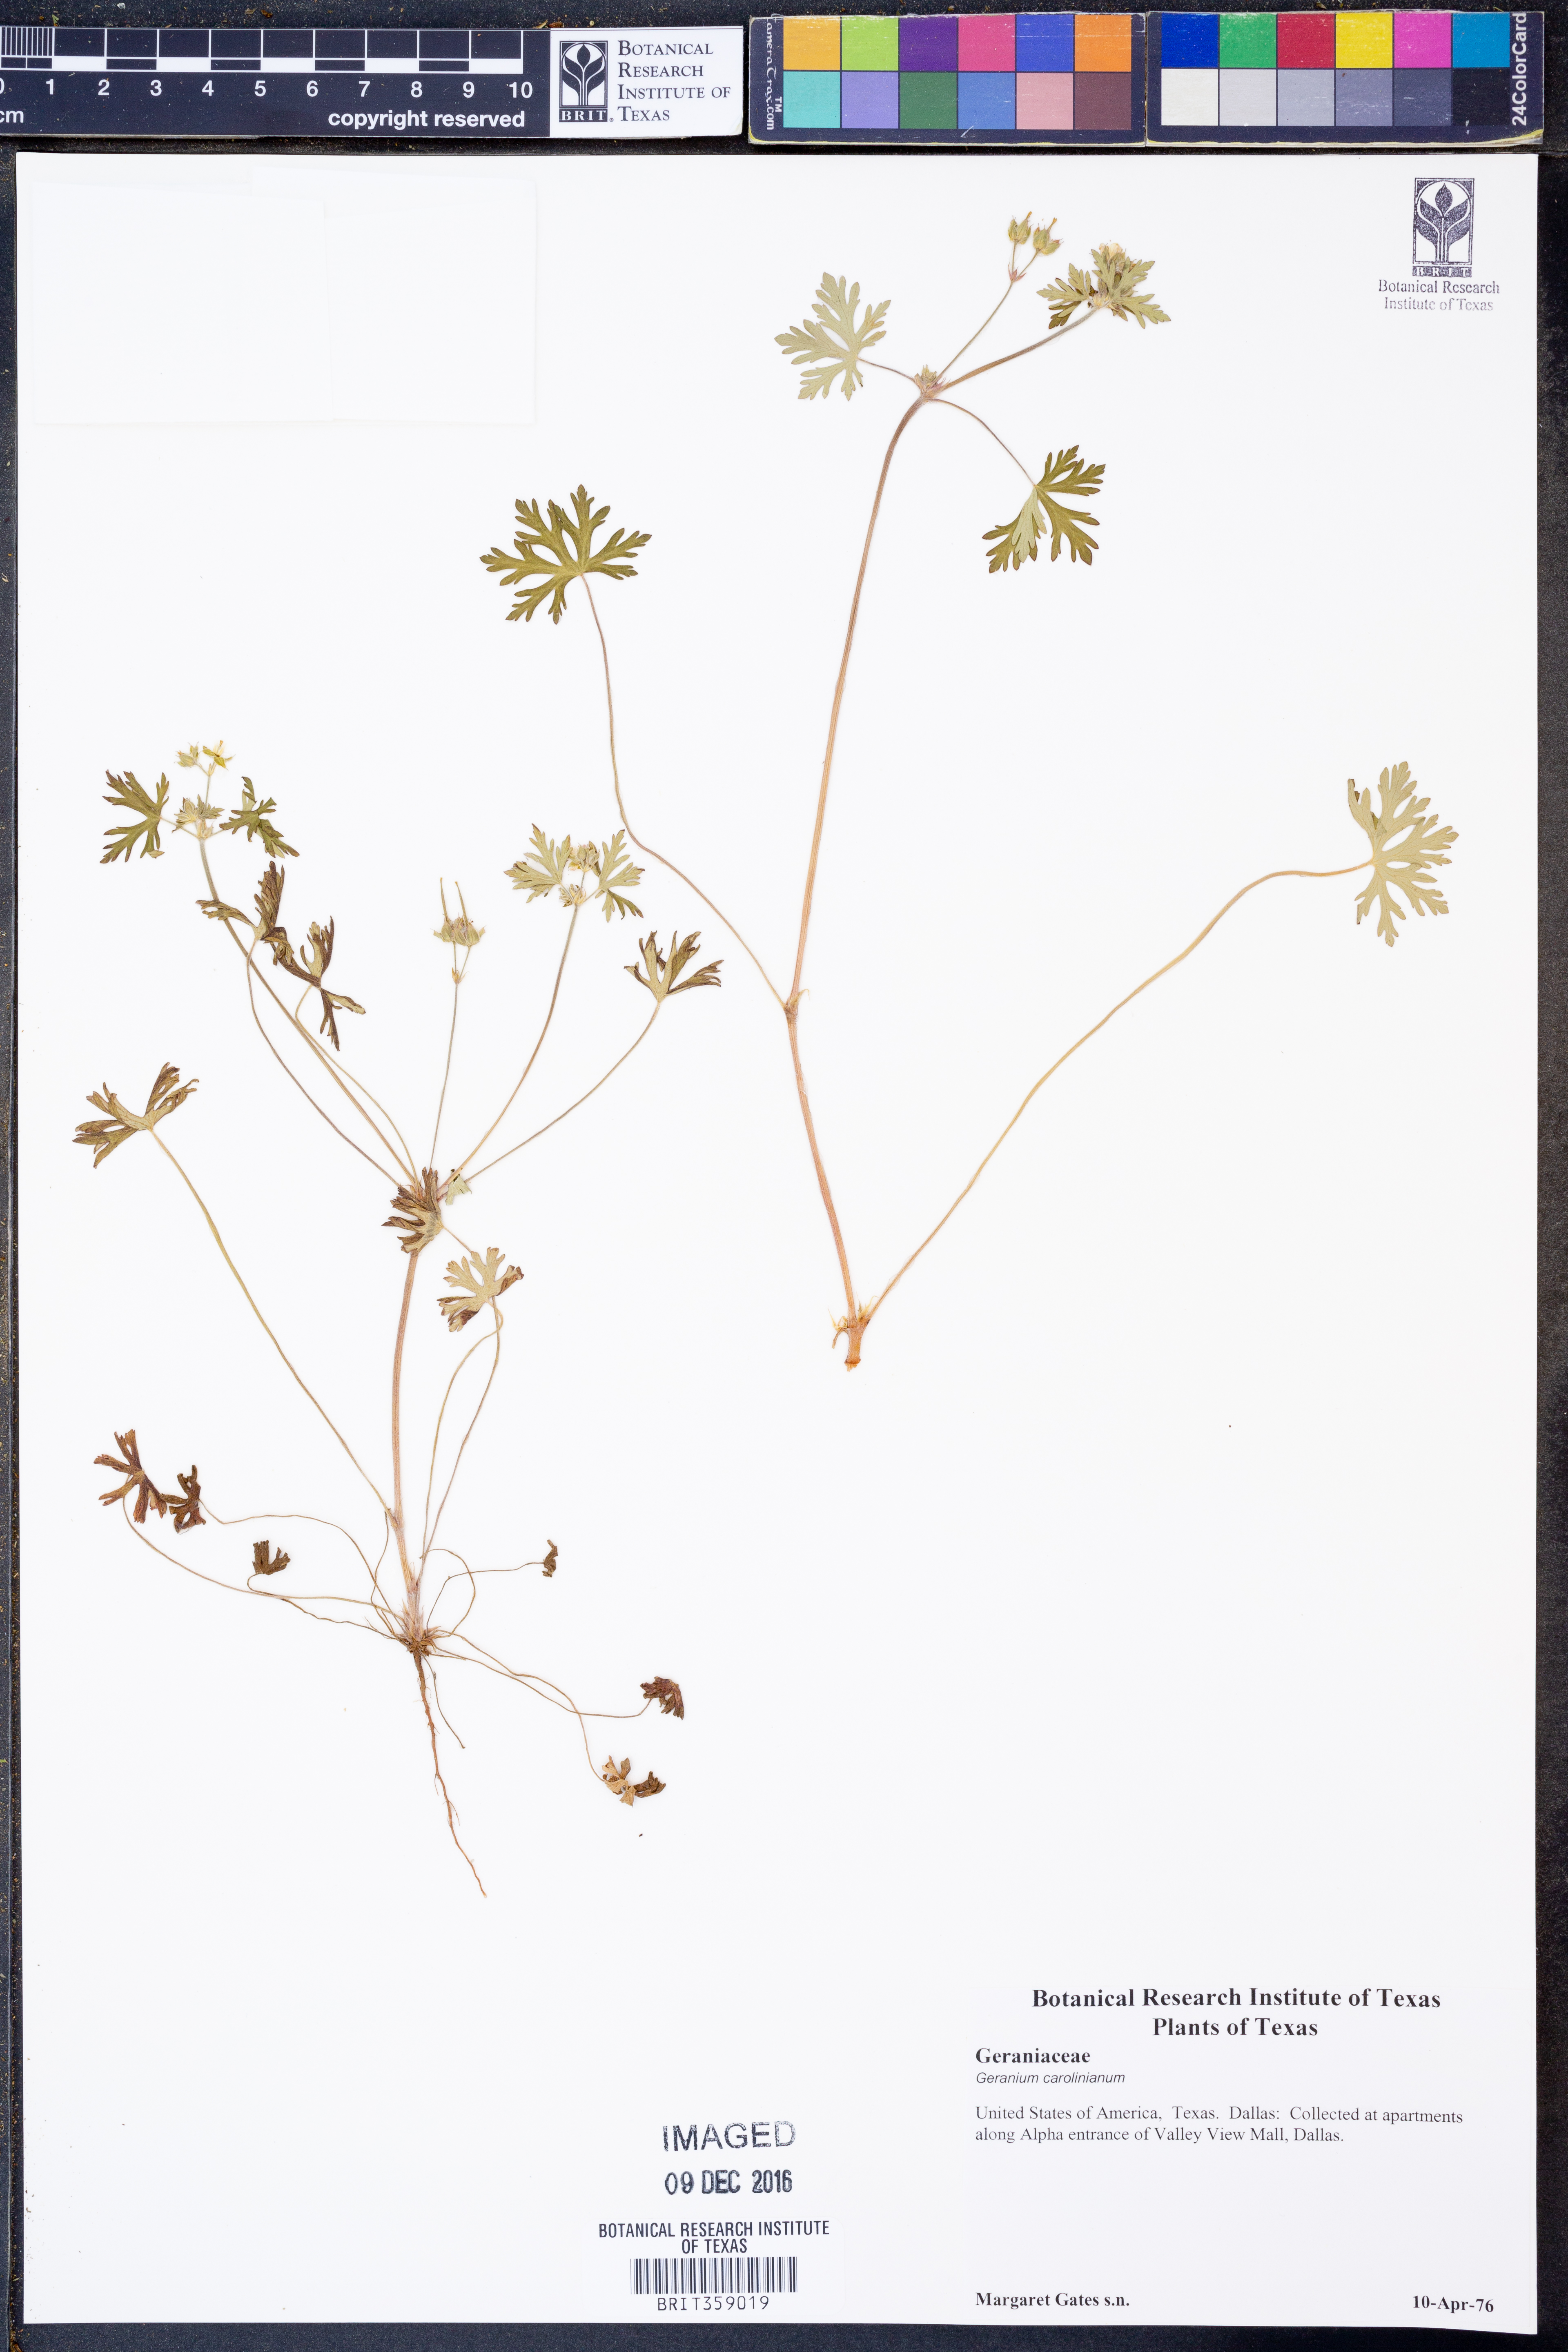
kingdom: Plantae
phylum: Tracheophyta
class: Magnoliopsida
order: Geraniales
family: Geraniaceae
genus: Geranium
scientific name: Geranium carolinianum
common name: Carolina crane's-bill
